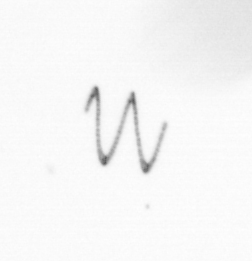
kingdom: Chromista
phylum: Ochrophyta
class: Bacillariophyceae
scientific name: Bacillariophyceae
